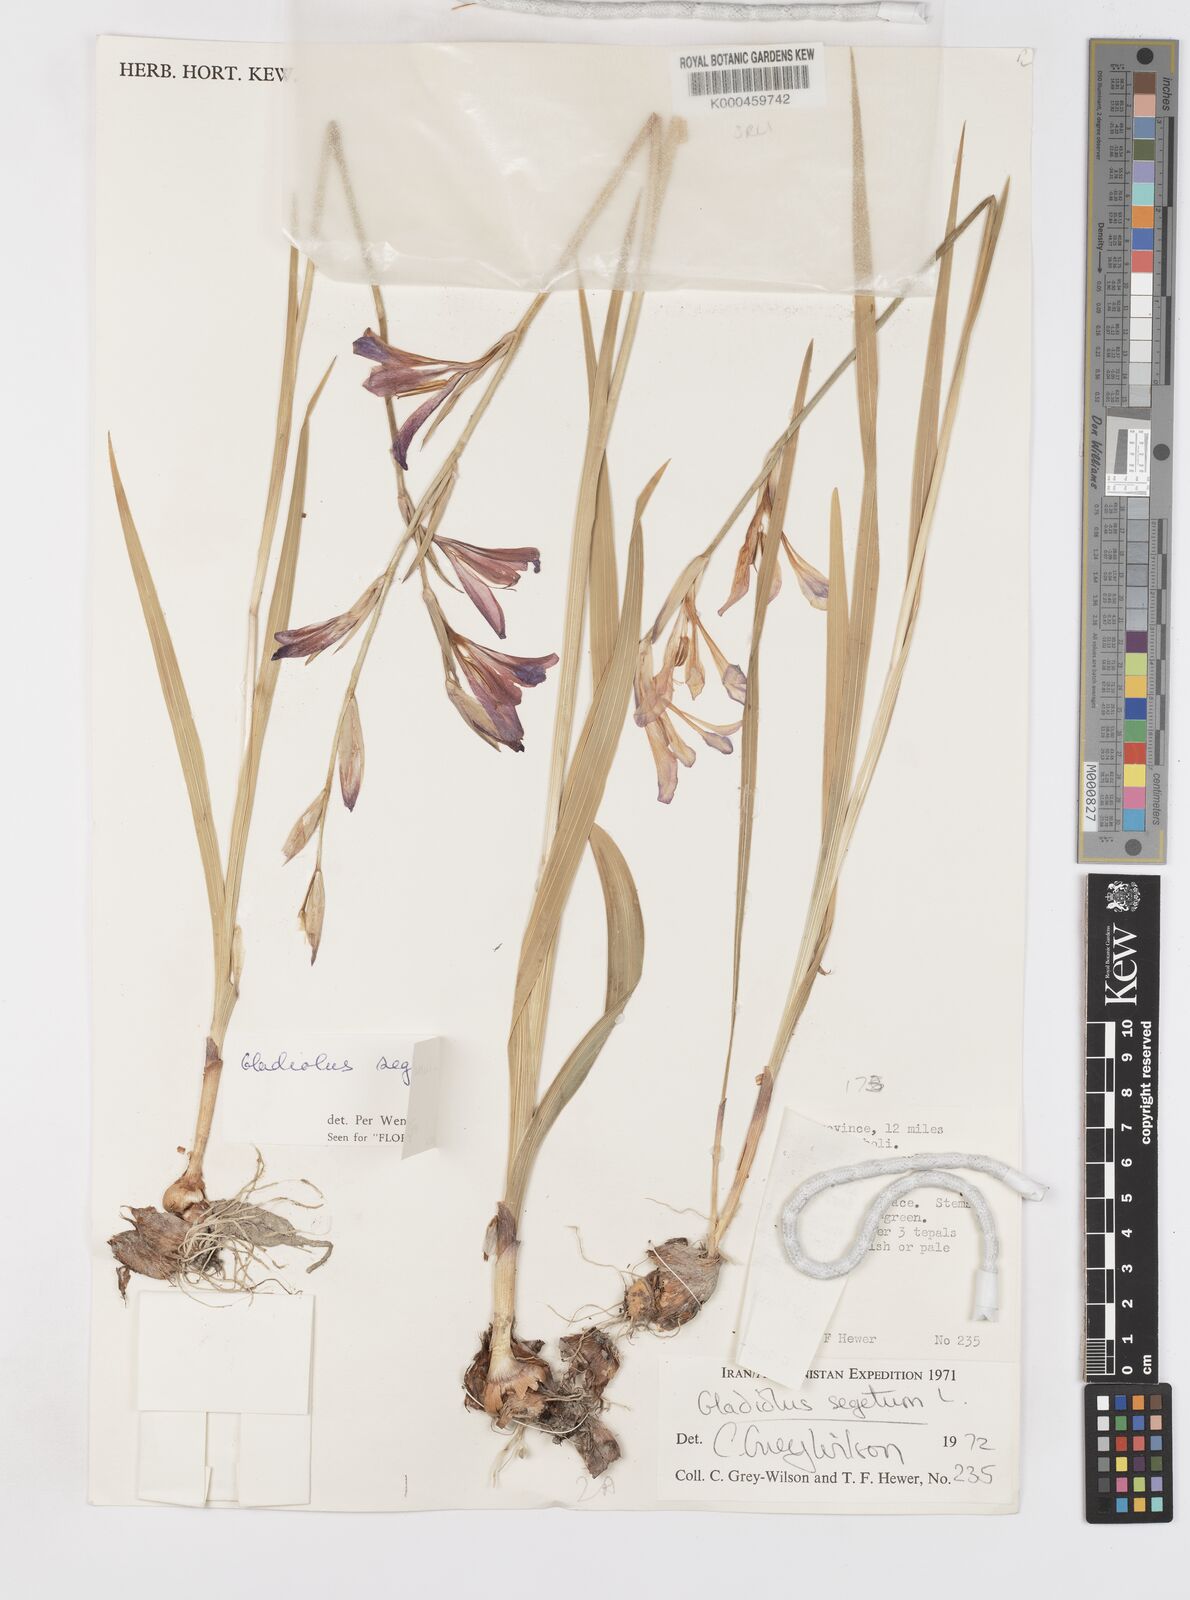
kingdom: Plantae
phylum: Tracheophyta
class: Liliopsida
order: Asparagales
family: Iridaceae
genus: Gladiolus
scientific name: Gladiolus italicus
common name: Field gladiolus
